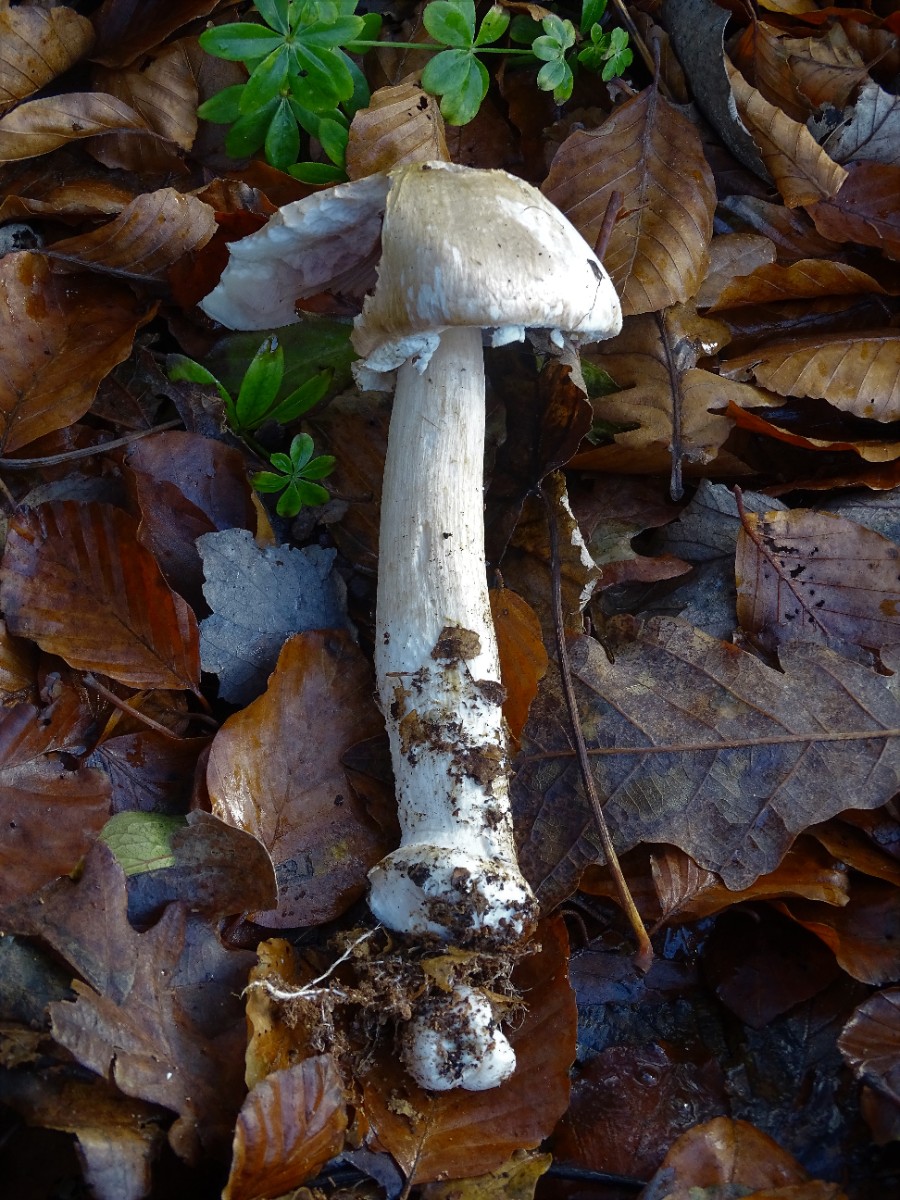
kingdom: Fungi
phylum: Basidiomycota
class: Agaricomycetes
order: Agaricales
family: Agaricaceae
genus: Agaricus
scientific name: Agaricus sylvicola
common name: skiveknoldet champignon
